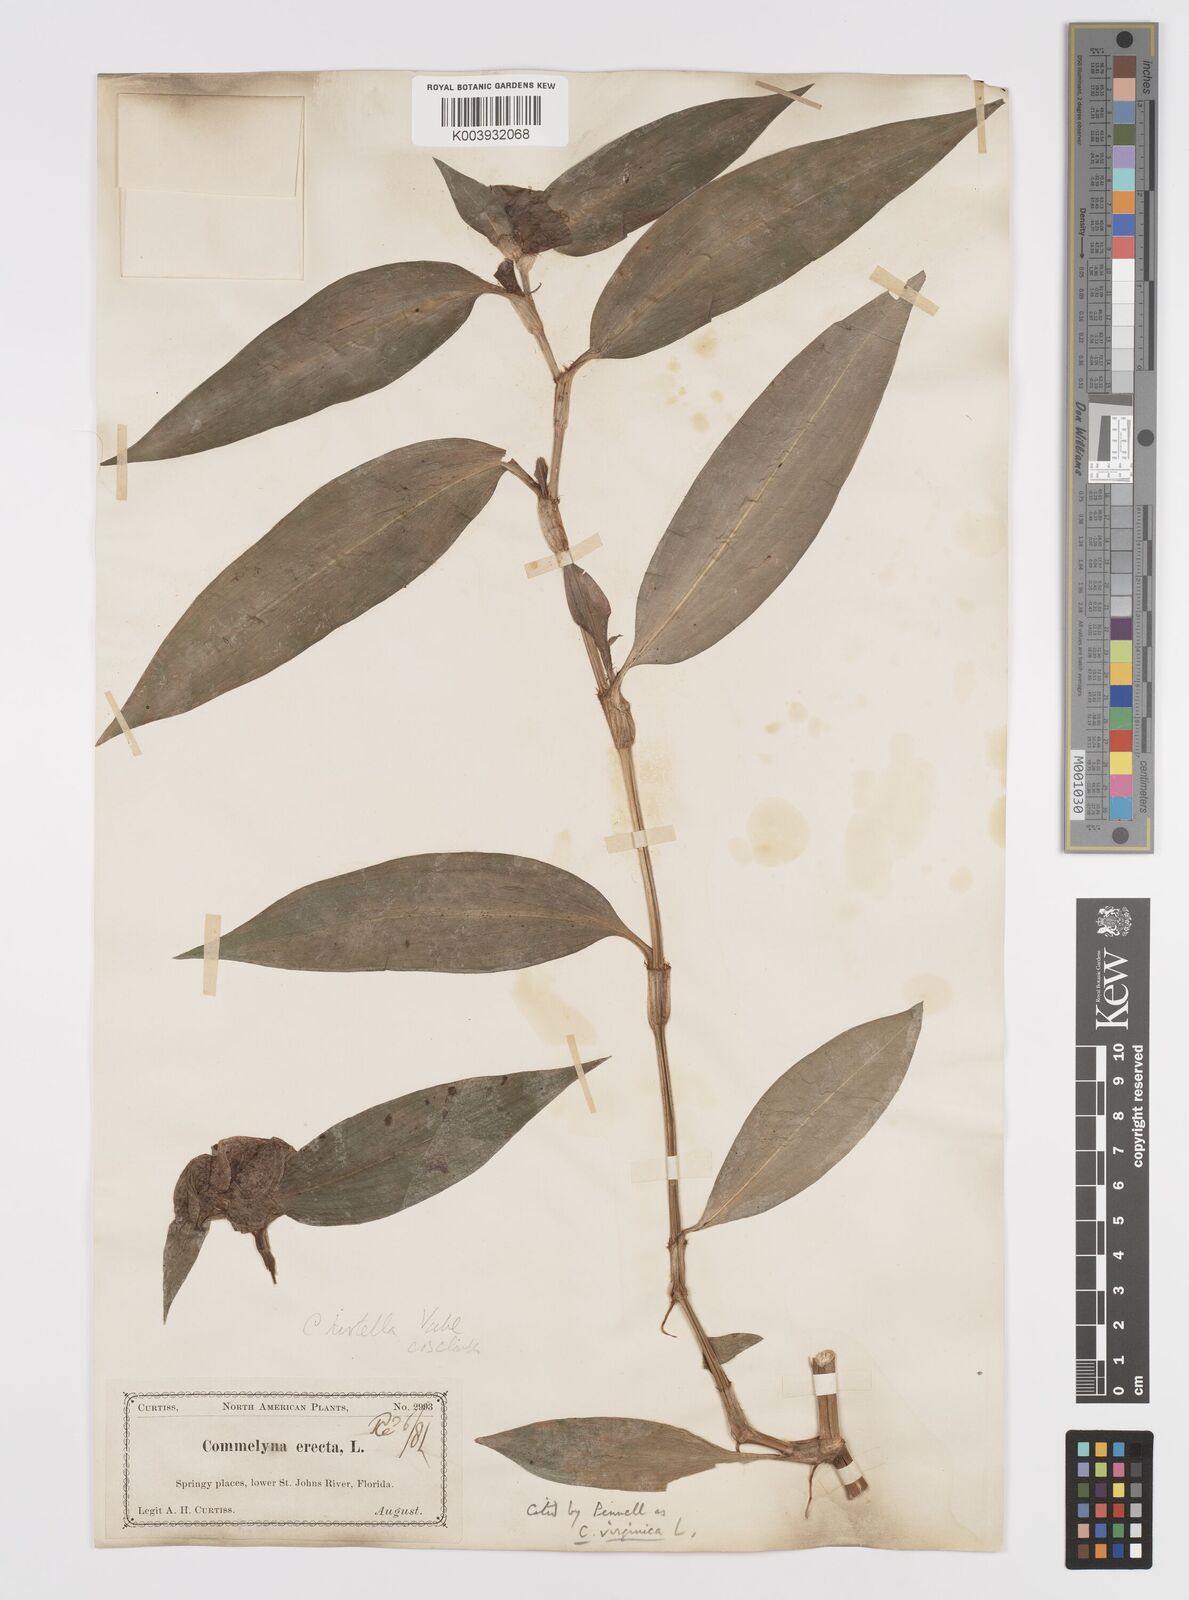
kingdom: Plantae
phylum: Tracheophyta
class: Liliopsida
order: Commelinales
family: Commelinaceae
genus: Commelina
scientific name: Commelina virginica
